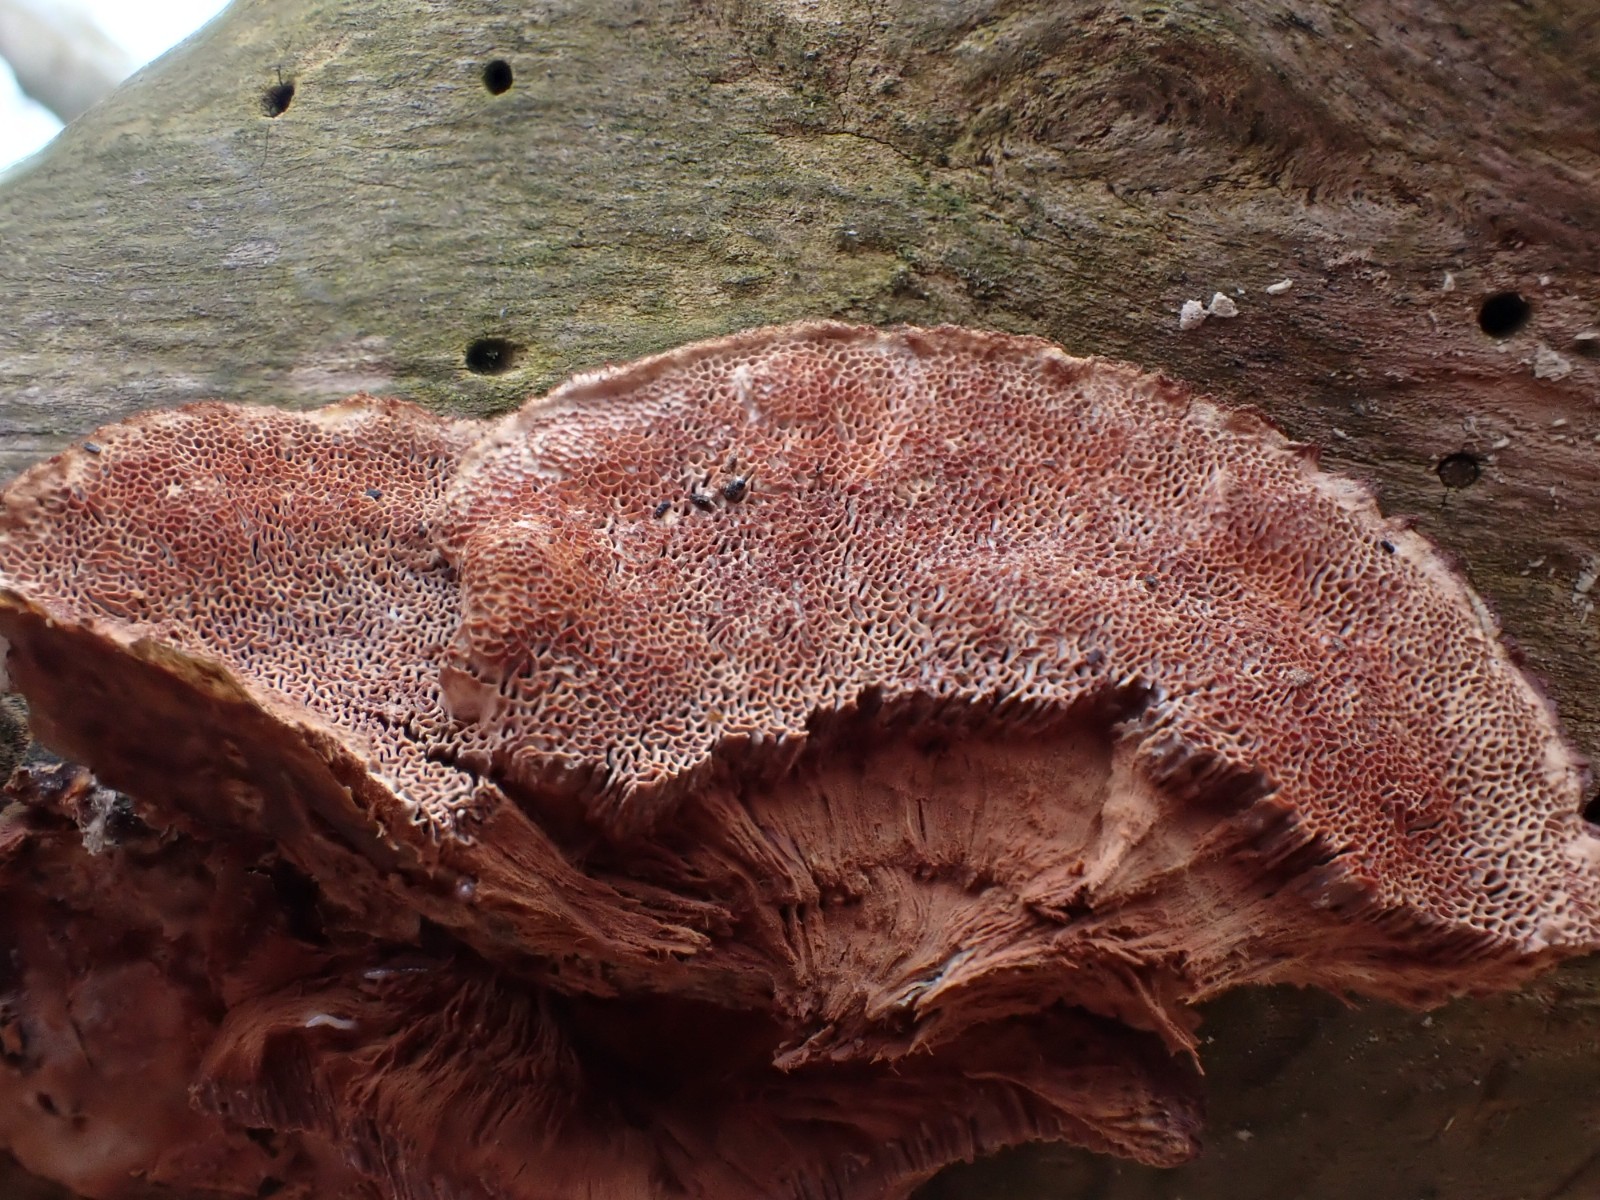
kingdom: Fungi
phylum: Basidiomycota
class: Agaricomycetes
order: Polyporales
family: Phanerochaetaceae
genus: Hapalopilus
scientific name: Hapalopilus rutilans
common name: rødlig okkerporesvamp
